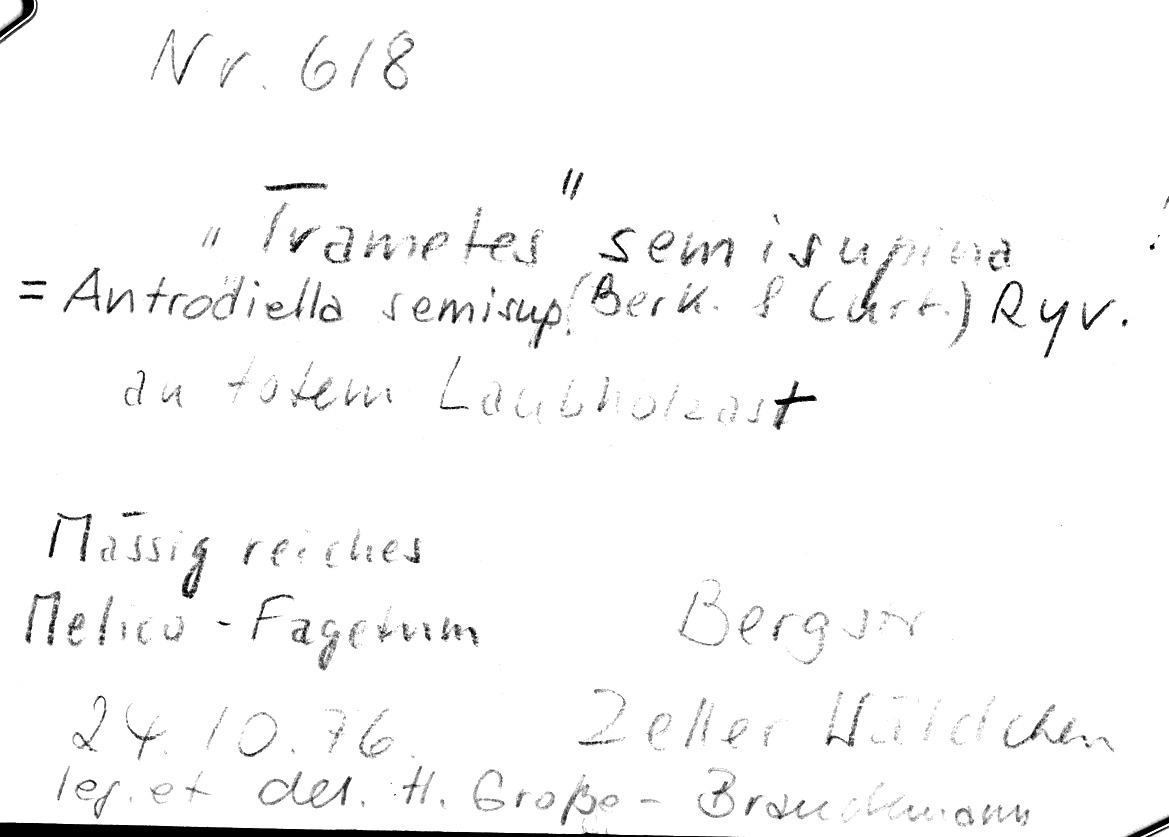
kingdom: Fungi
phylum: Basidiomycota
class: Agaricomycetes
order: Polyporales
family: Steccherinaceae
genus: Antrodiella
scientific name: Antrodiella semisupina
